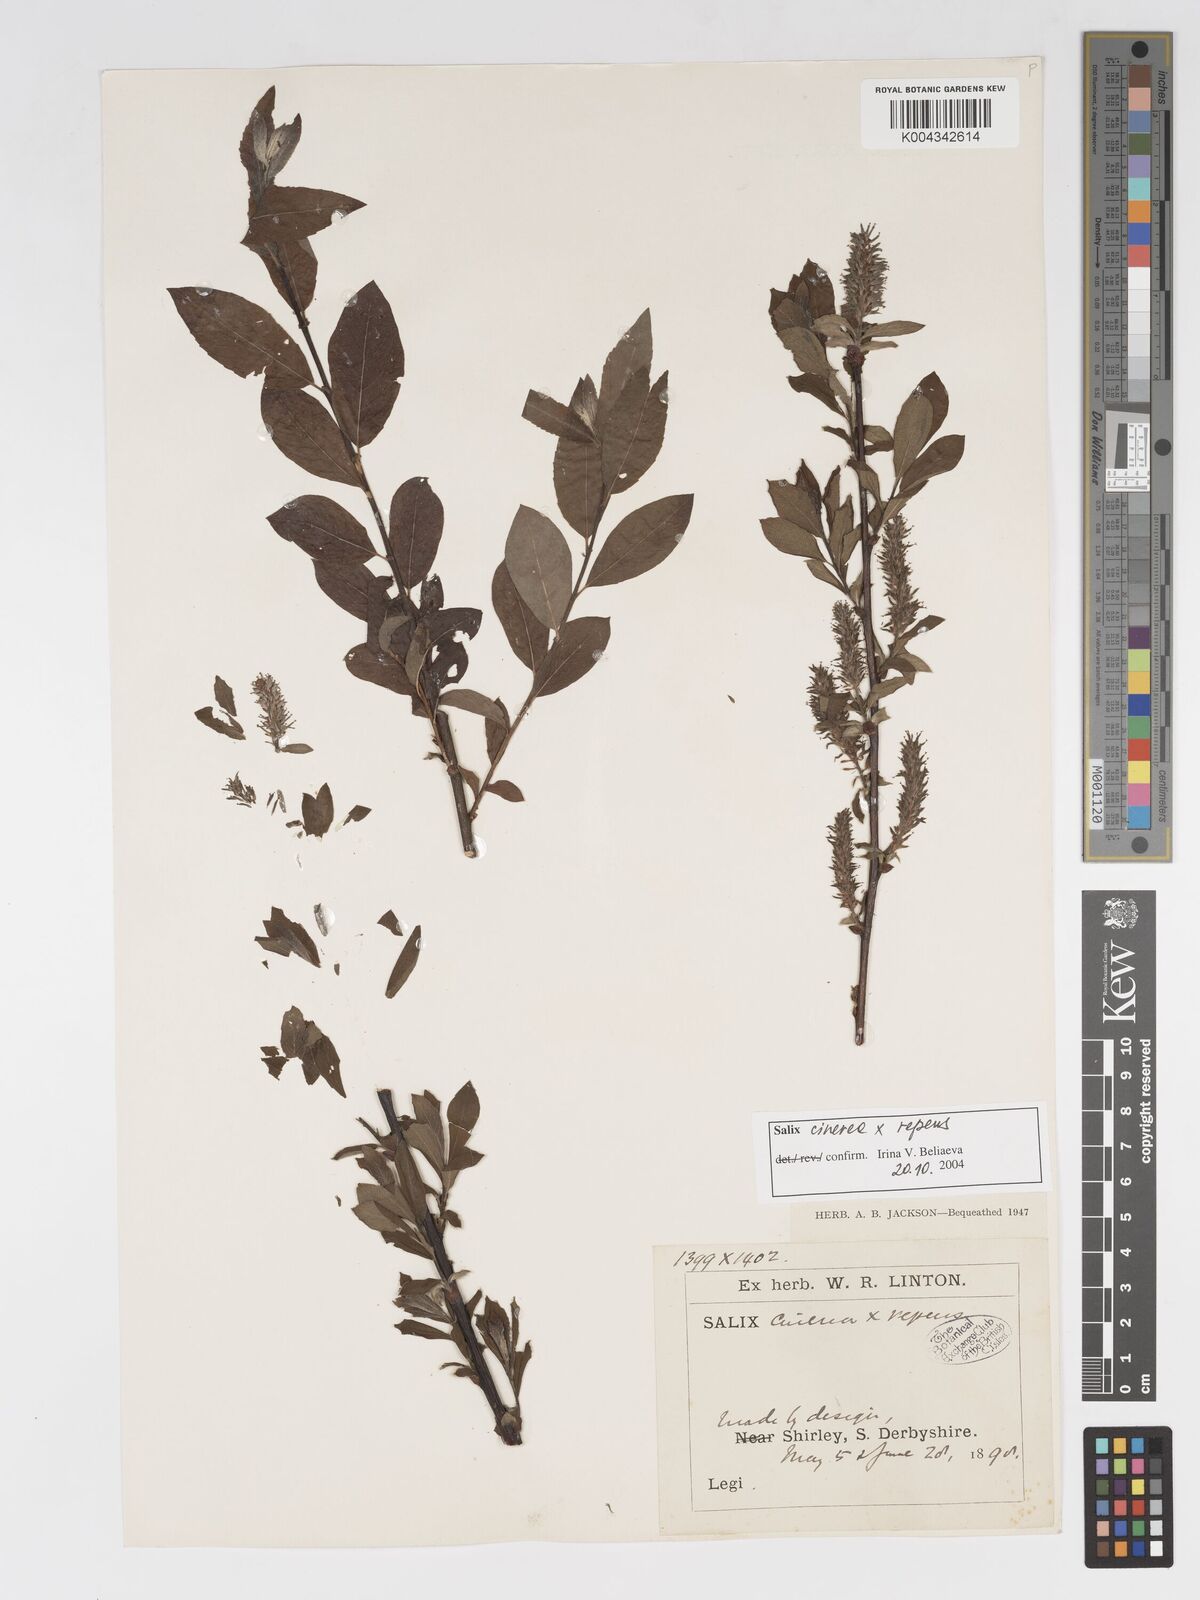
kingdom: Plantae
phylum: Tracheophyta
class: Magnoliopsida
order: Malpighiales
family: Salicaceae
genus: Salix
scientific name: Salix cinerea
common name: Common sallow
